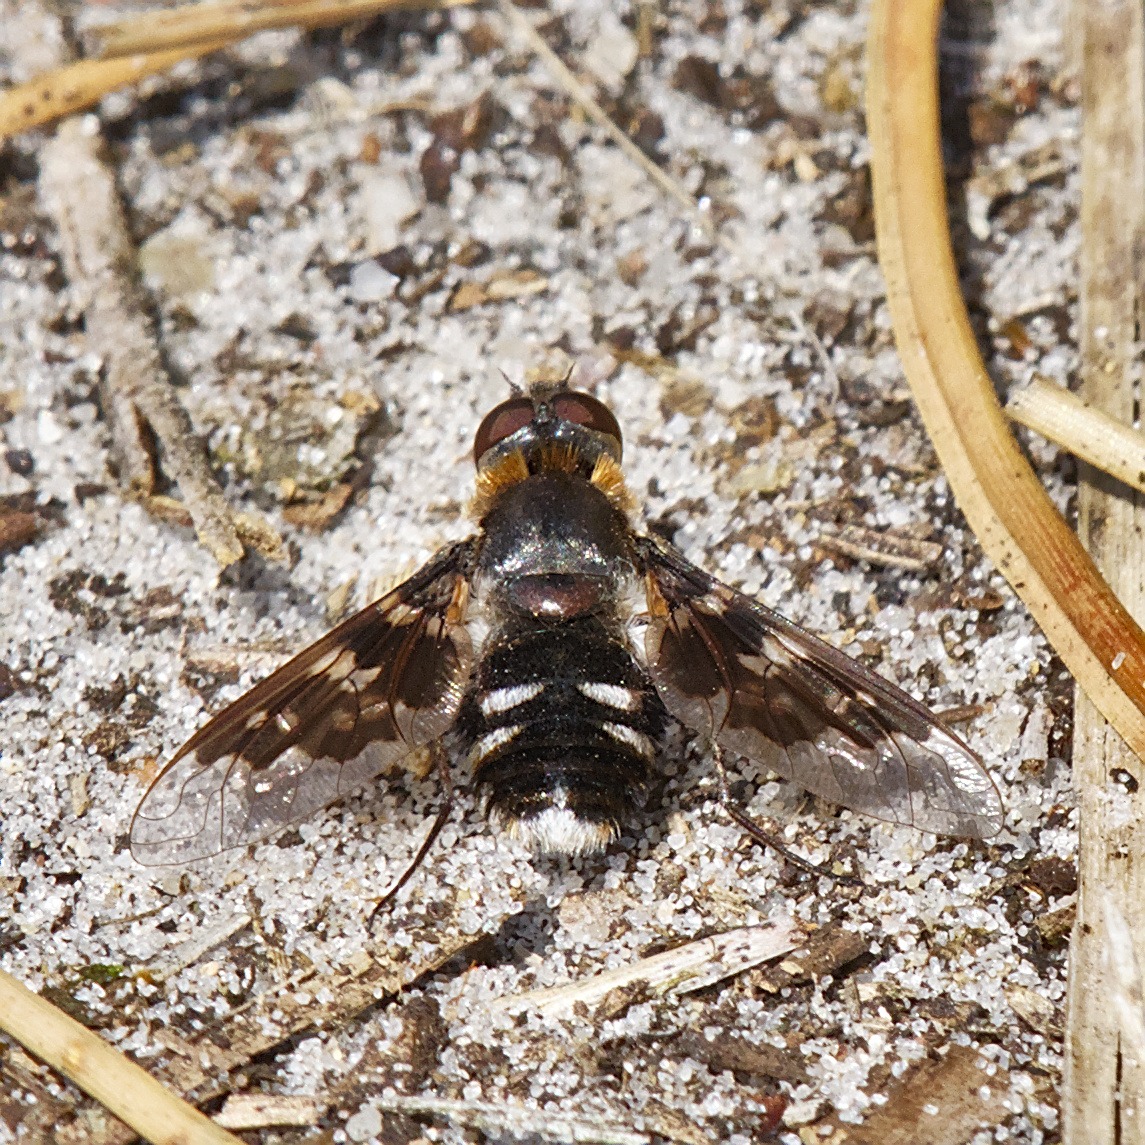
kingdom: Animalia
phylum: Arthropoda
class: Insecta
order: Diptera
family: Bombyliidae
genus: Thyridanthrax
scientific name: Thyridanthrax fenestratus
